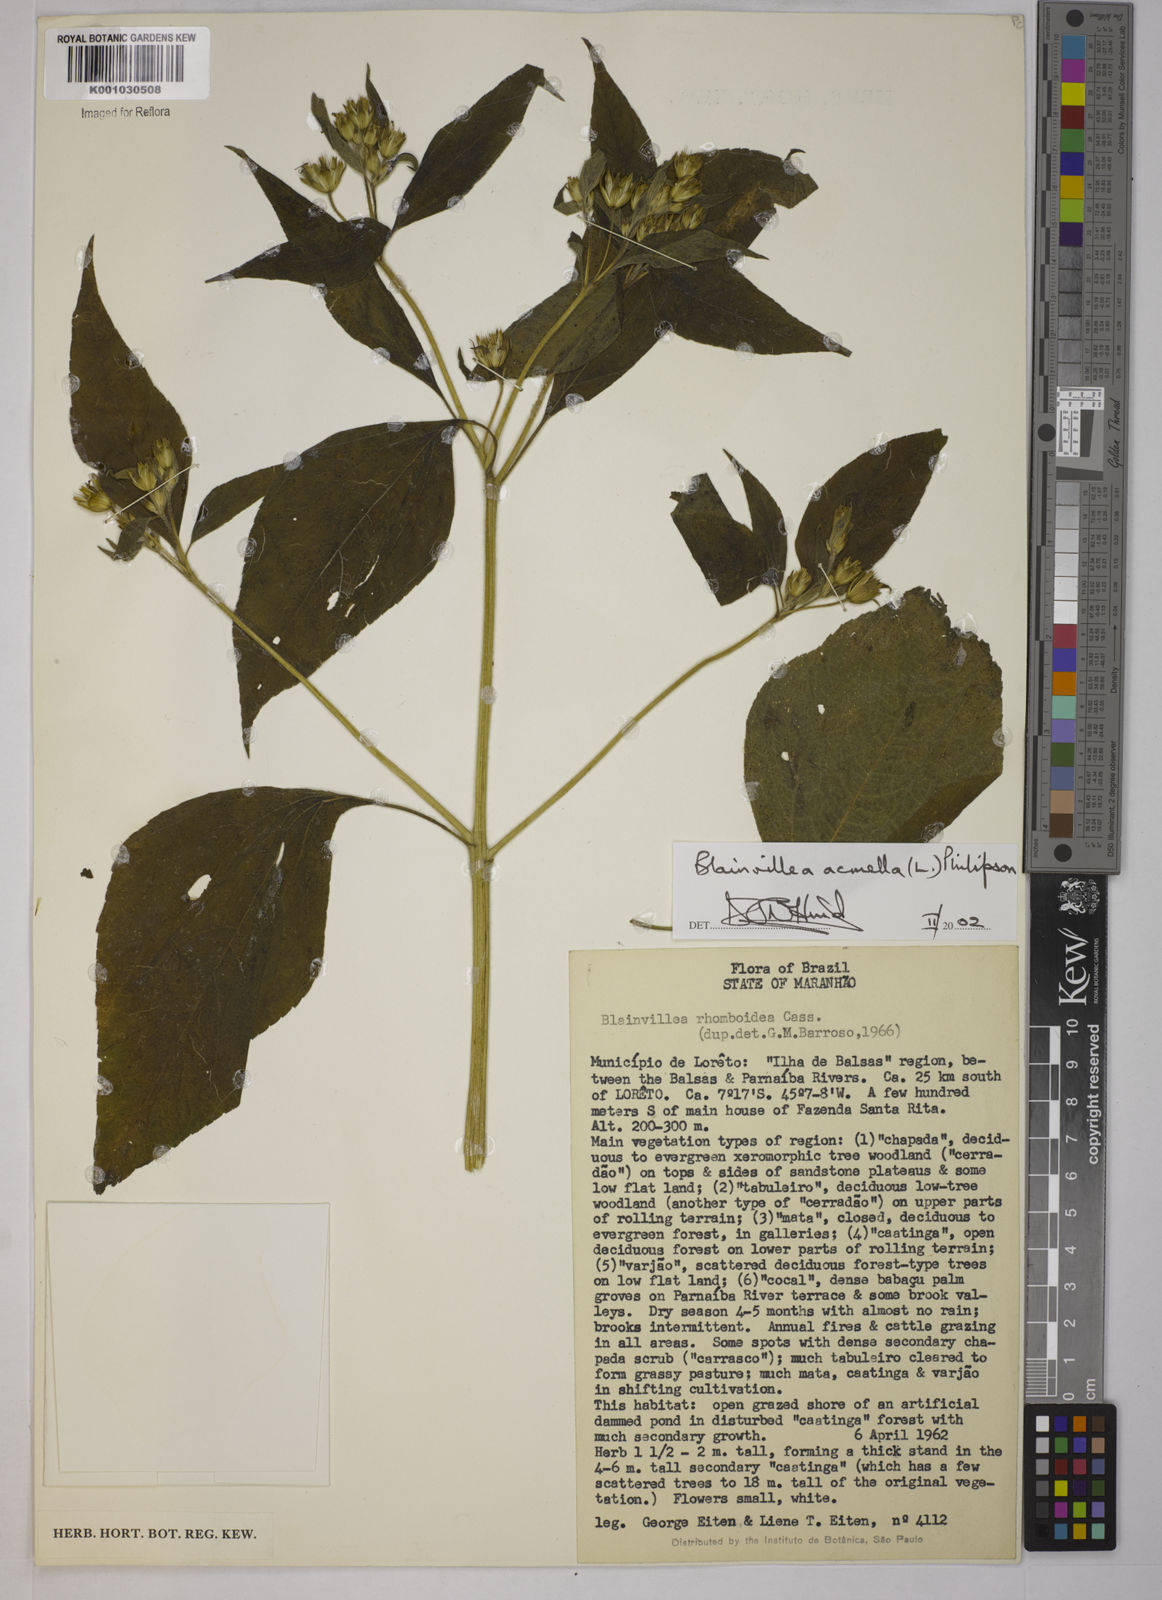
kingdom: Plantae
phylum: Tracheophyta
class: Magnoliopsida
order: Asterales
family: Asteraceae
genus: Blainvillea
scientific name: Blainvillea acmella
